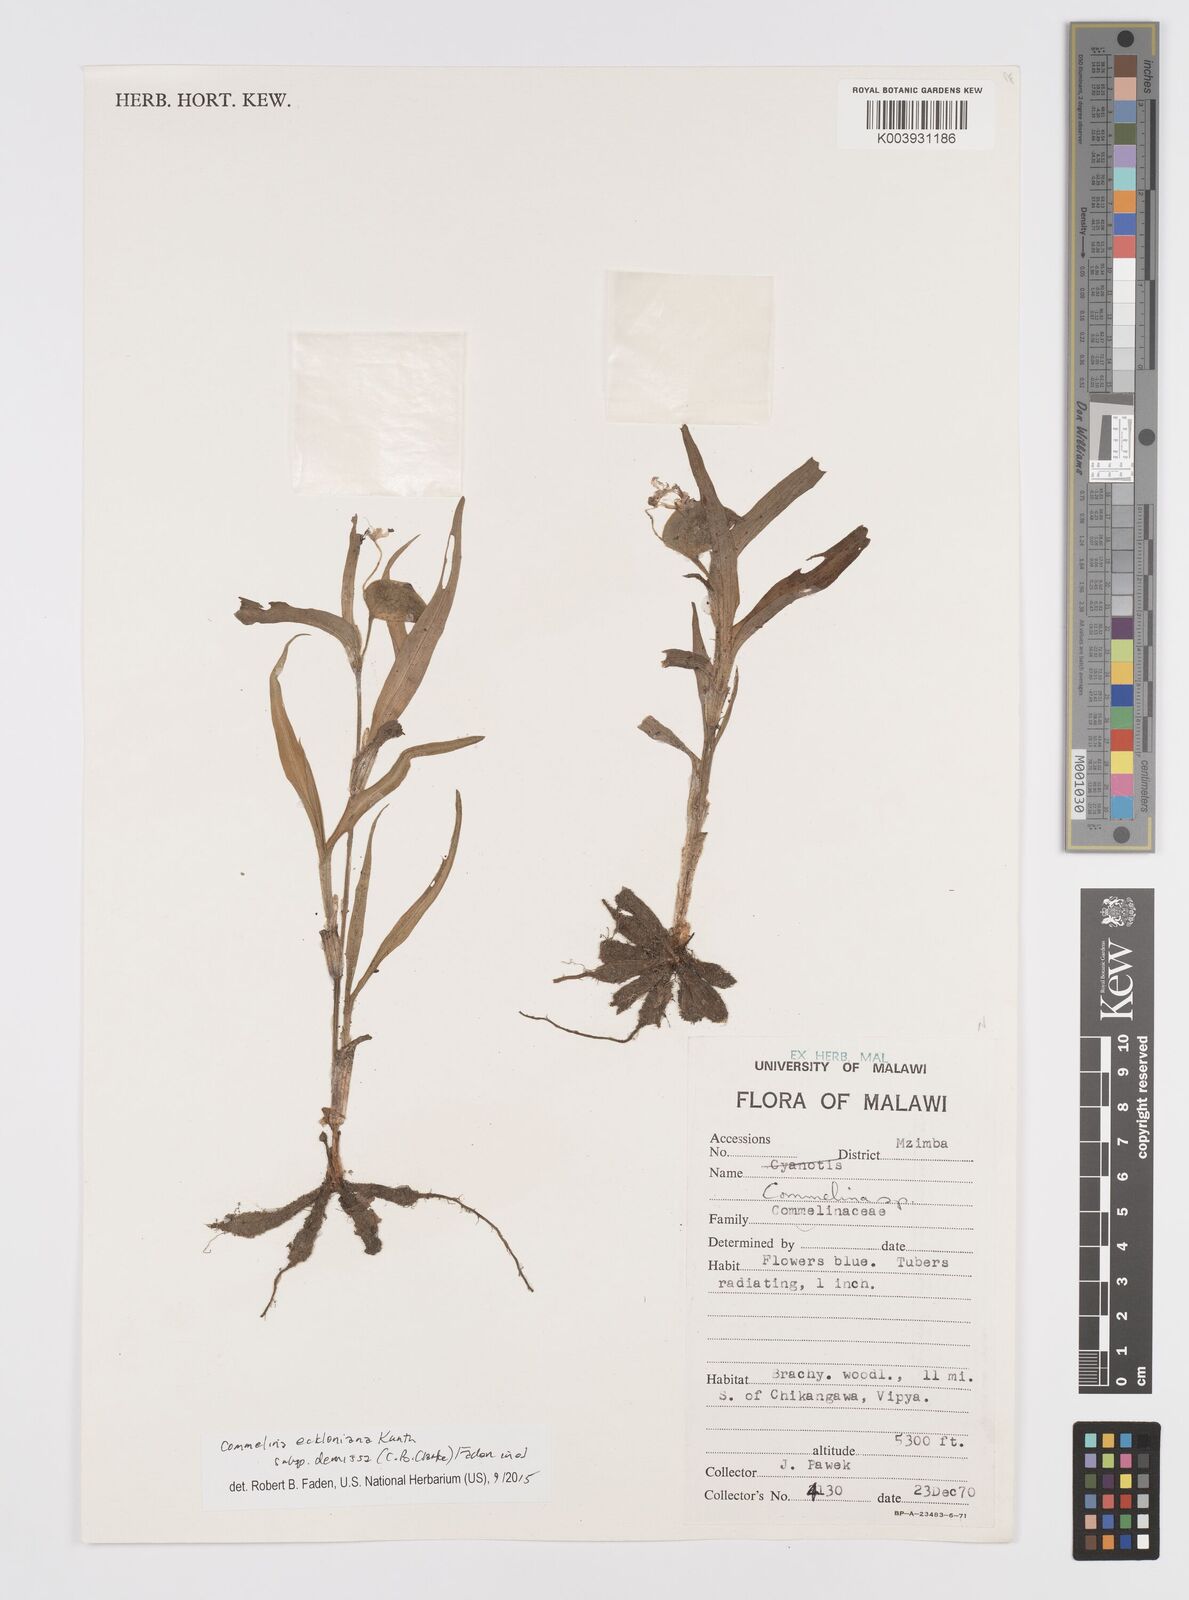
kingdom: Plantae
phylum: Tracheophyta
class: Liliopsida
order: Commelinales
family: Commelinaceae
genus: Commelina
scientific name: Commelina eckloniana
